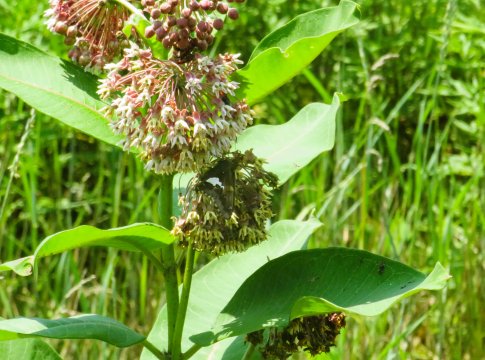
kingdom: Animalia
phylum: Arthropoda
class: Insecta
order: Lepidoptera
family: Hesperiidae
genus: Epargyreus
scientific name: Epargyreus clarus
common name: Silver-spotted Skipper
